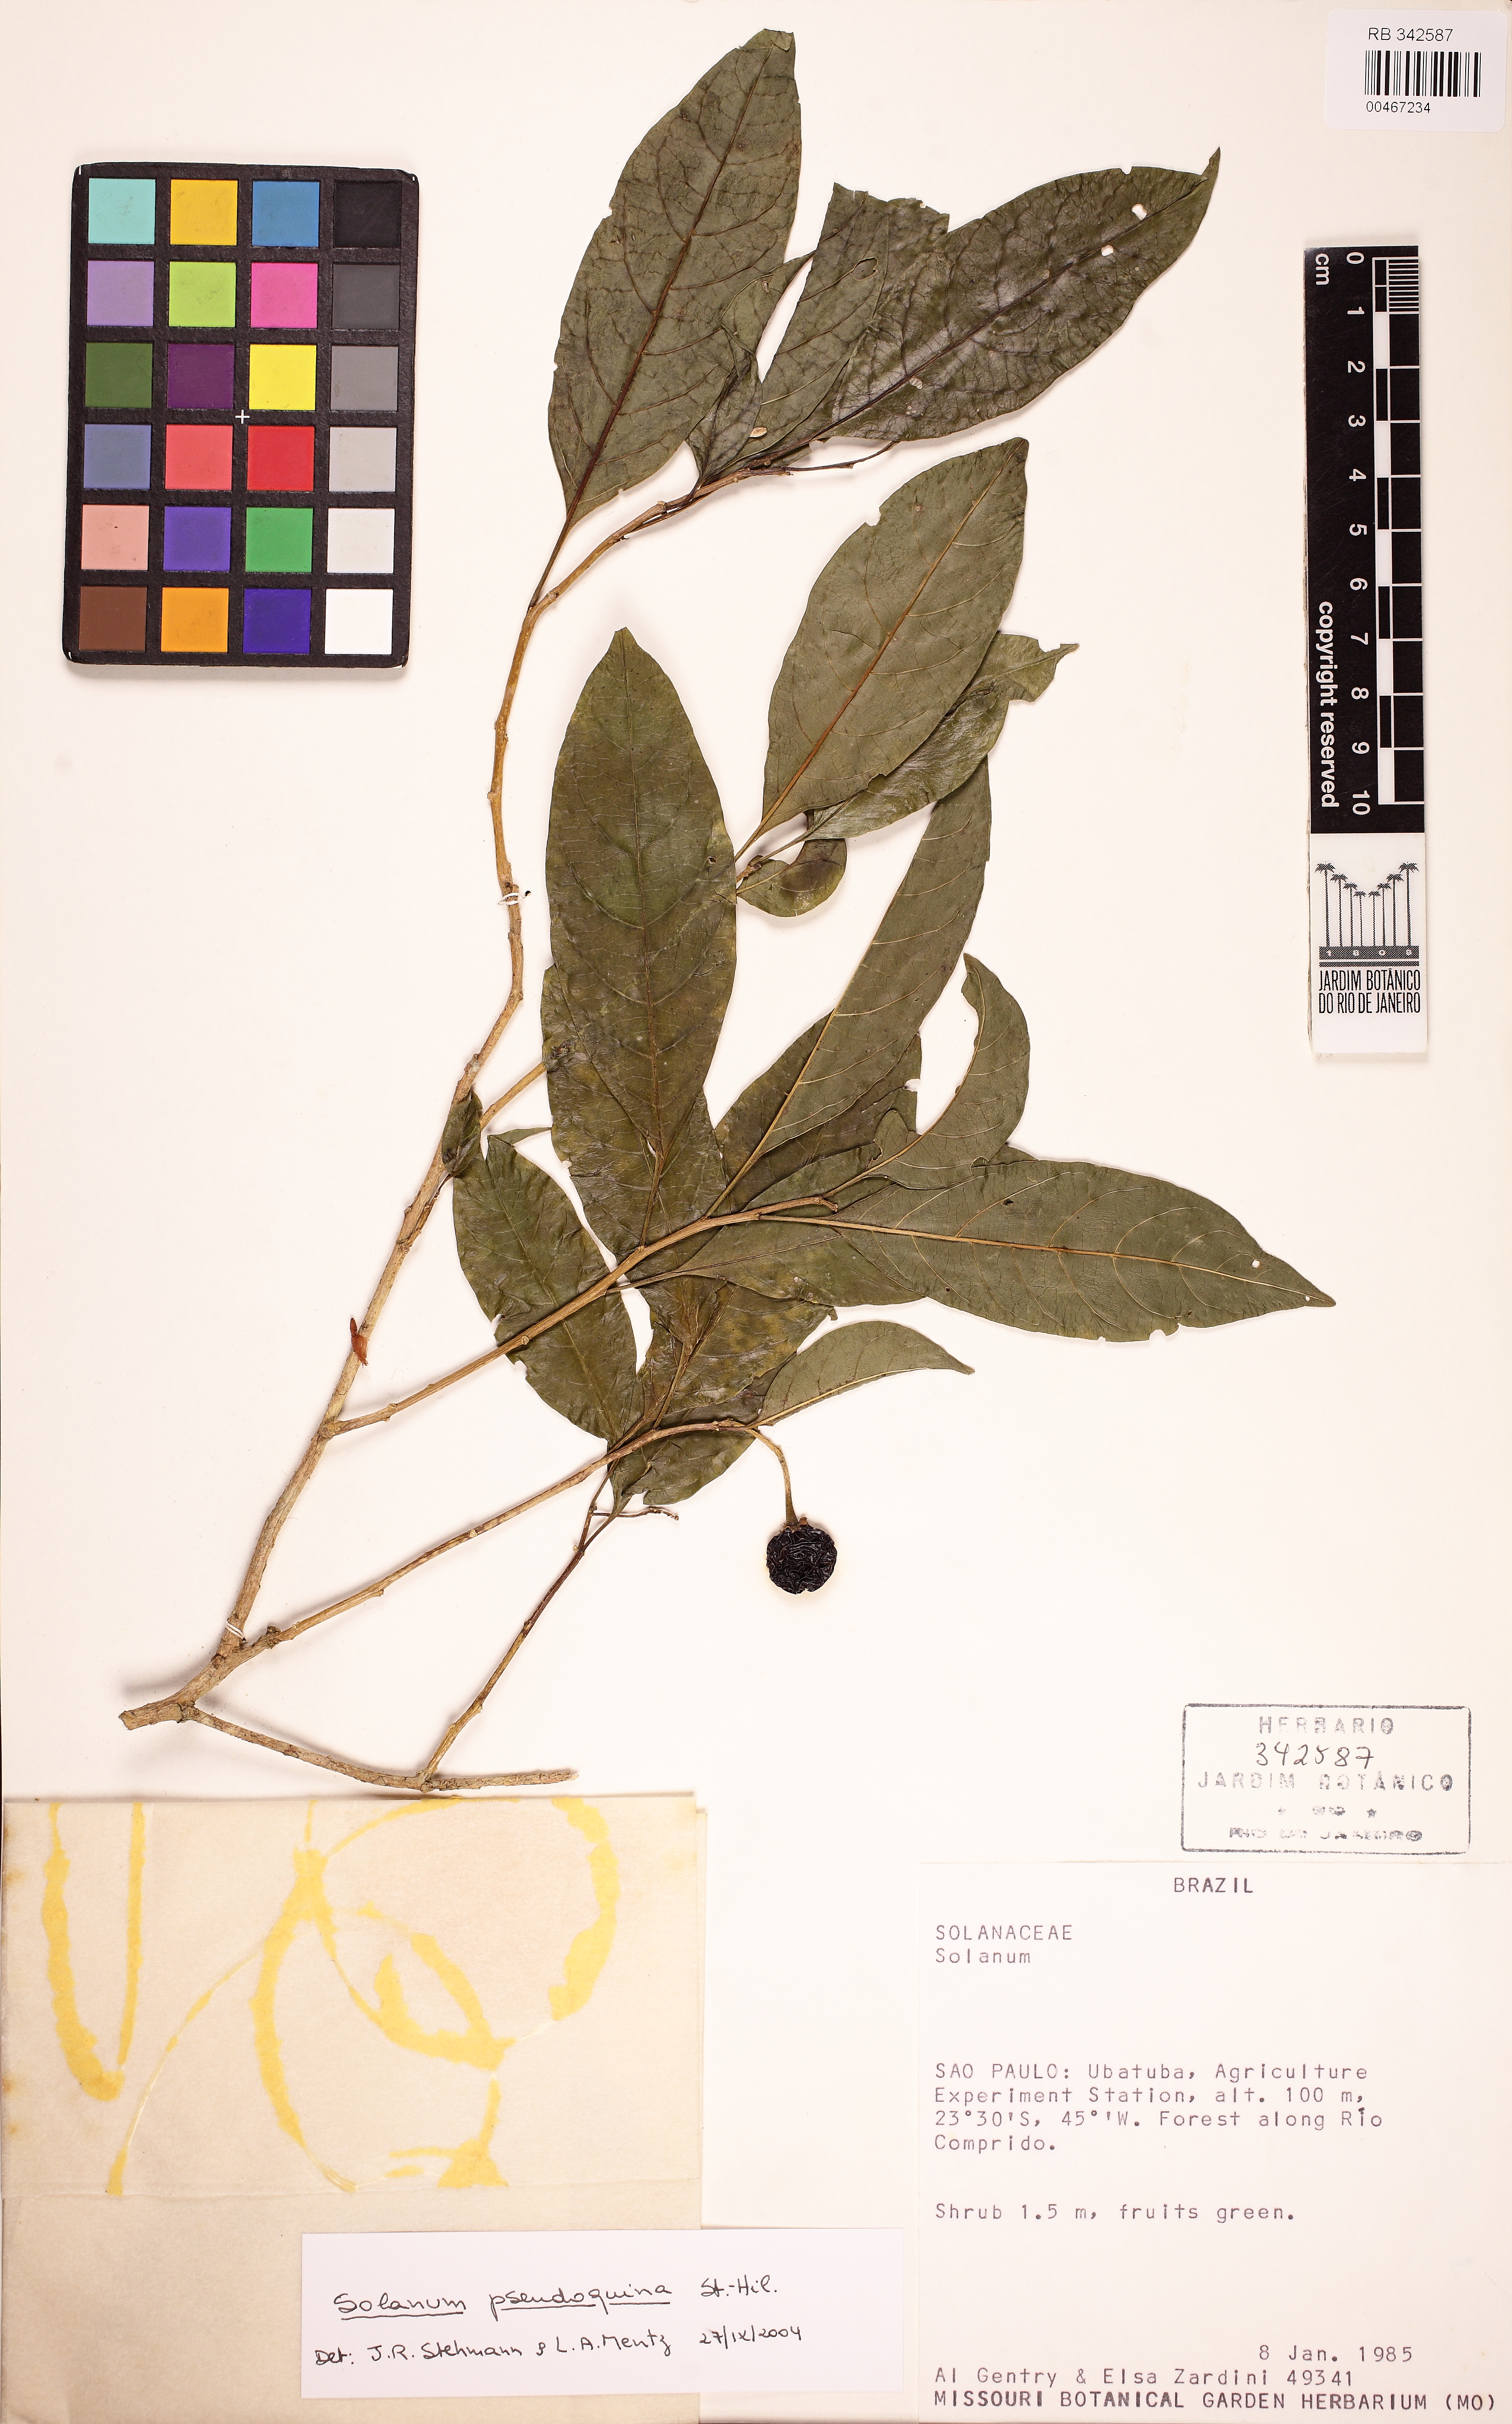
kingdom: Plantae
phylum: Tracheophyta
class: Magnoliopsida
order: Solanales
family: Solanaceae
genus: Solanum
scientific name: Solanum pseudoquina
